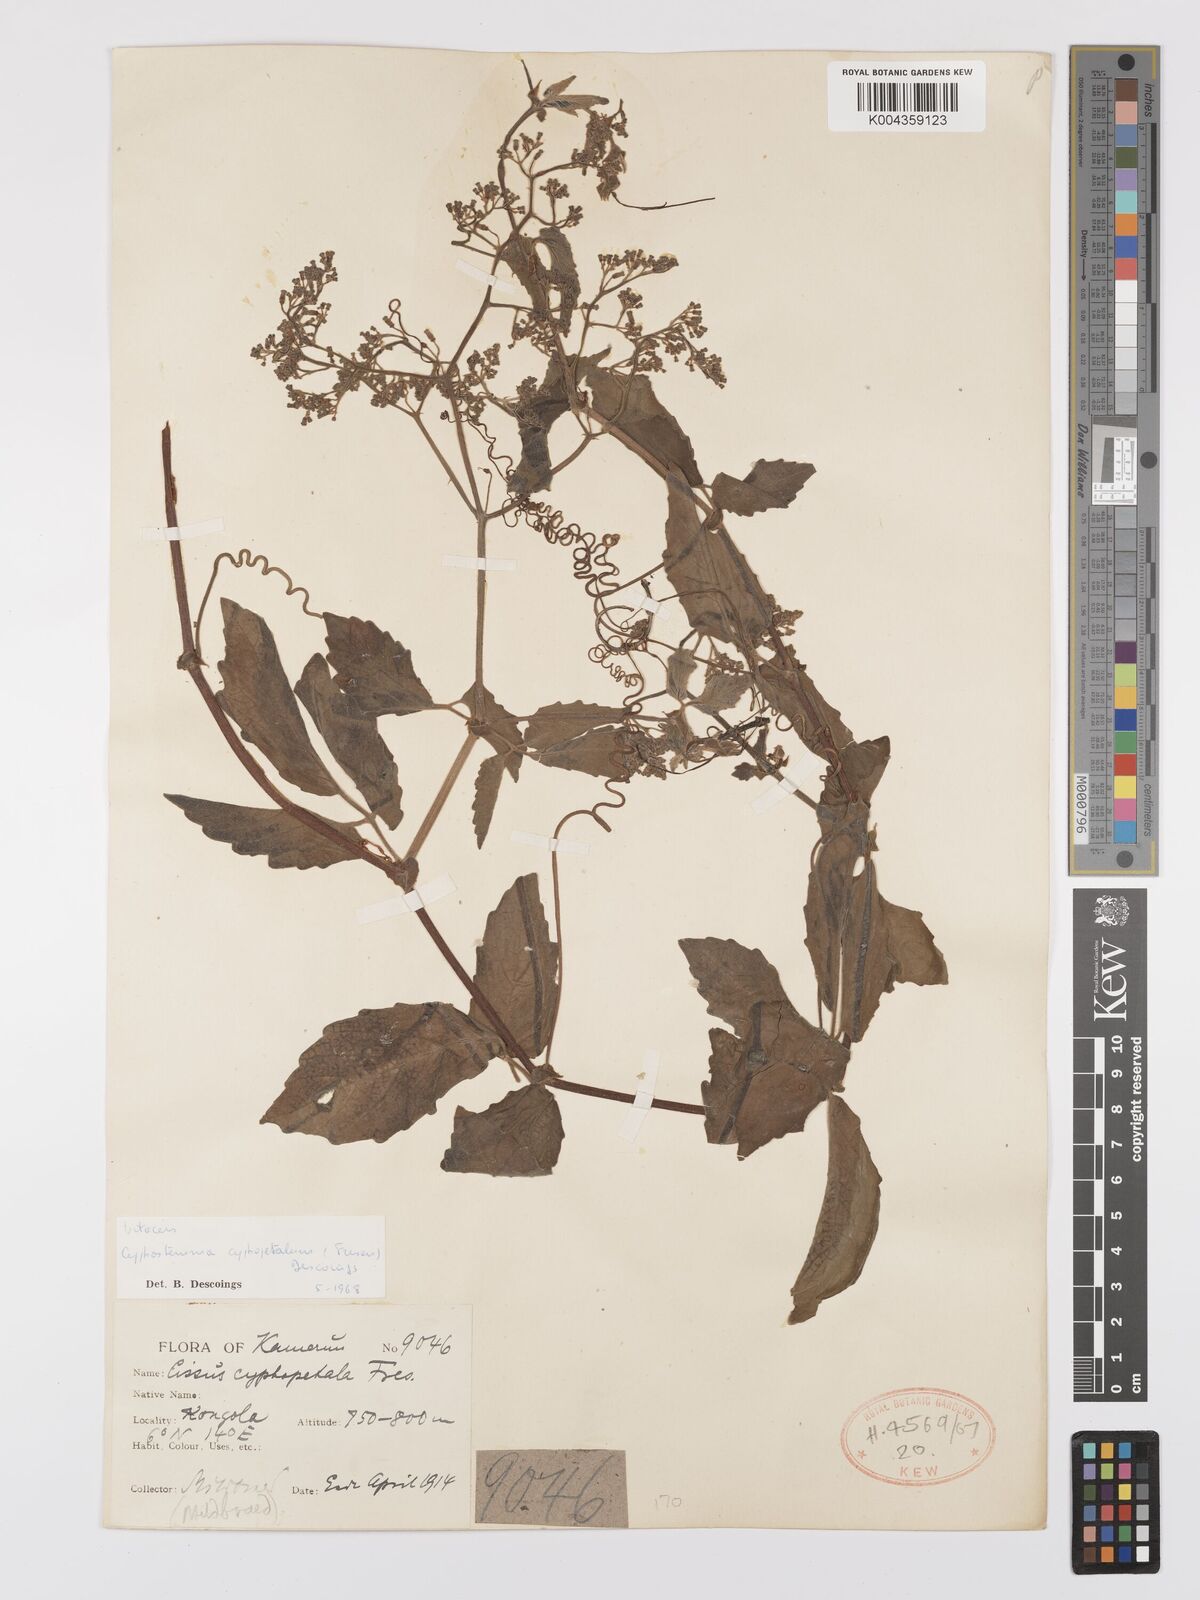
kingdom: Plantae
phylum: Tracheophyta
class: Magnoliopsida
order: Vitales
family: Vitaceae
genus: Cyphostemma
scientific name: Cyphostemma cyphopetalum
